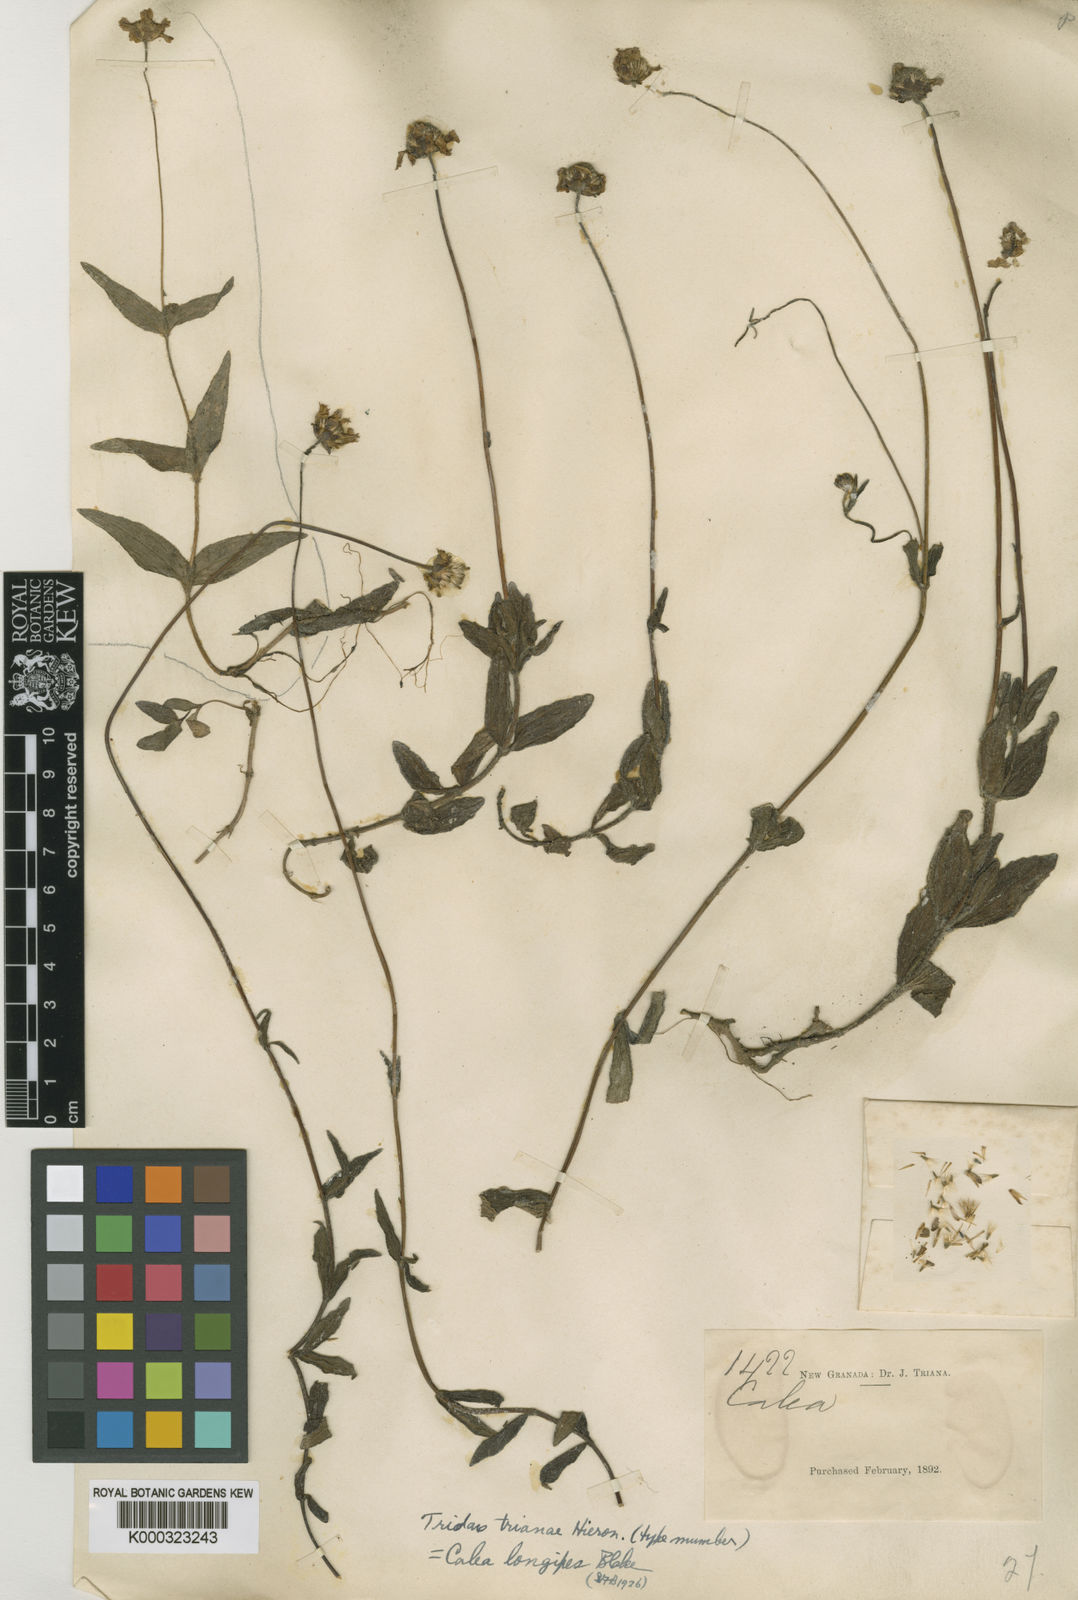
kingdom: Plantae
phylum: Tracheophyta
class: Magnoliopsida
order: Asterales
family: Asteraceae
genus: Sabazia
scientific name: Sabazia trianae
